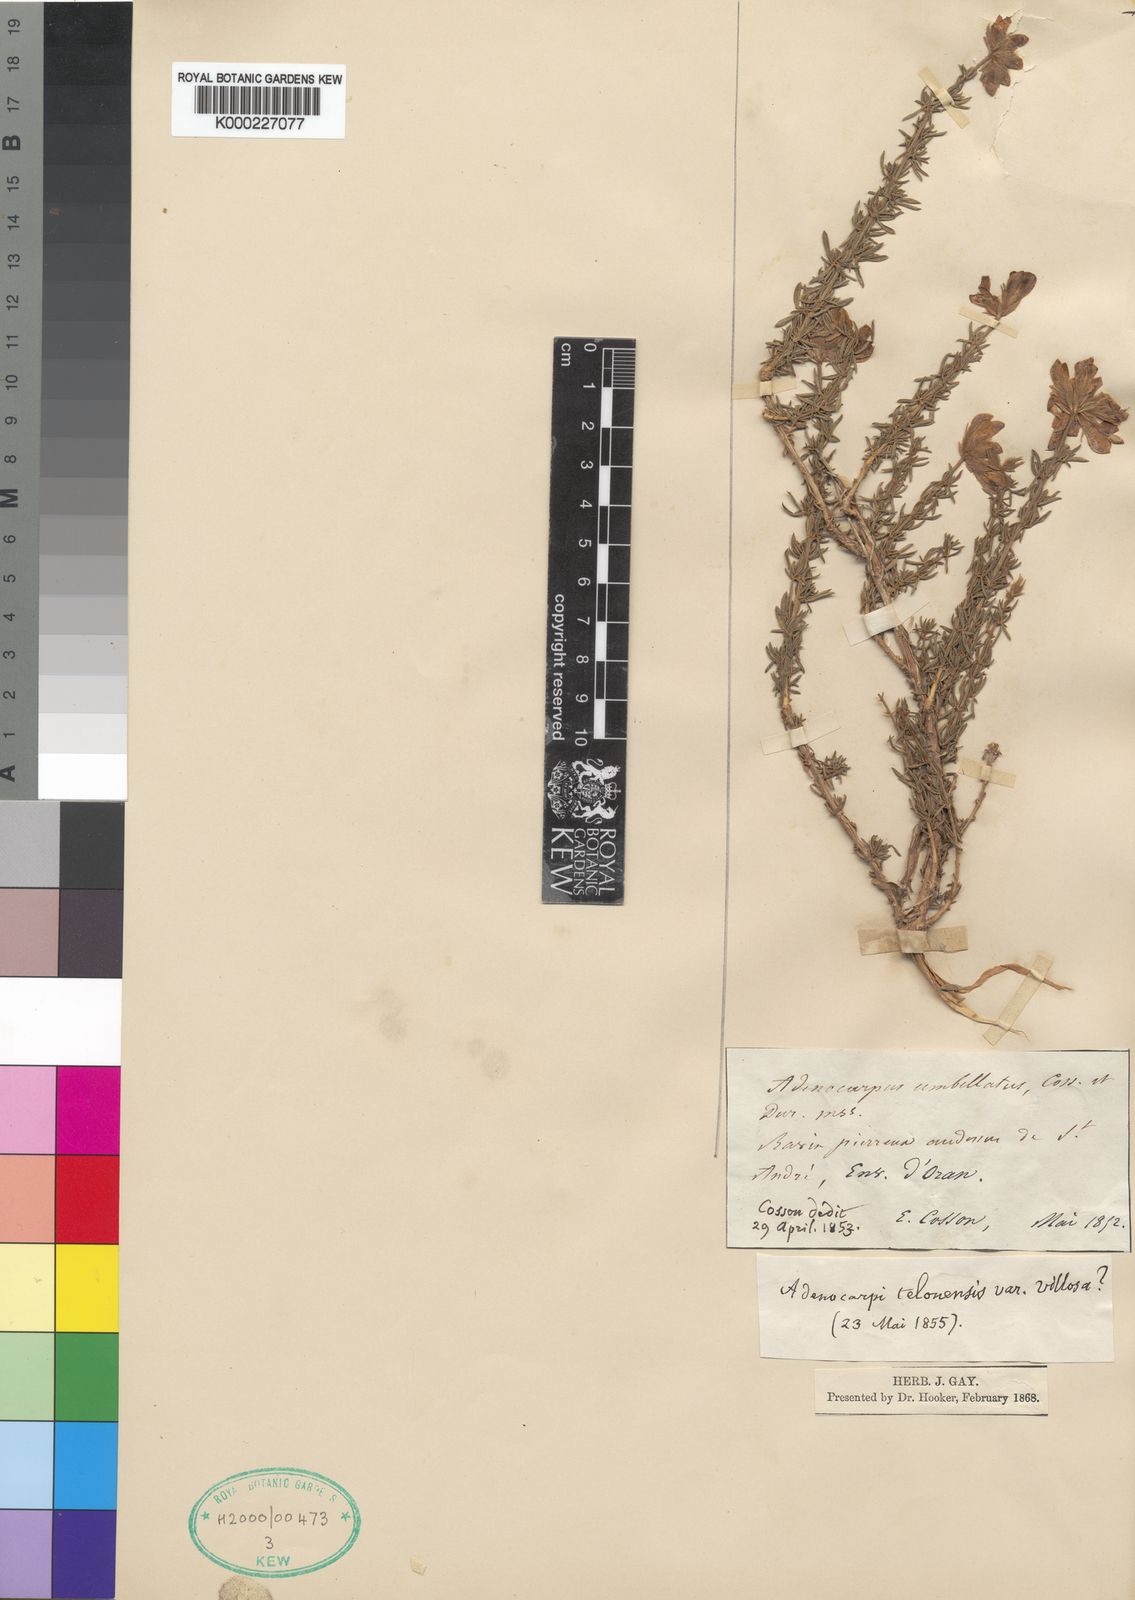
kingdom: Plantae
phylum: Tracheophyta
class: Magnoliopsida
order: Fabales
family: Fabaceae
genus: Adenocarpus
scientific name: Adenocarpus
